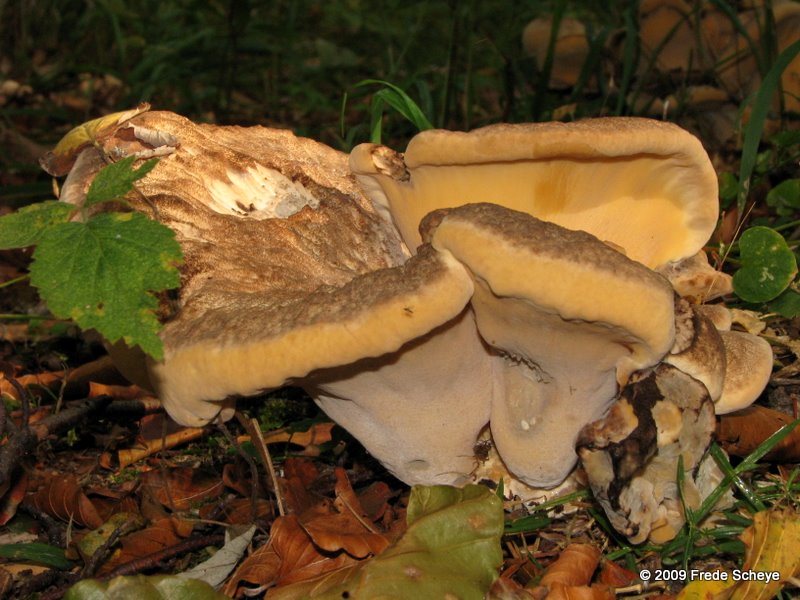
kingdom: Fungi
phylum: Basidiomycota
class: Agaricomycetes
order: Polyporales
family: Meripilaceae
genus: Meripilus
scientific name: Meripilus giganteus
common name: kæmpeporesvamp
